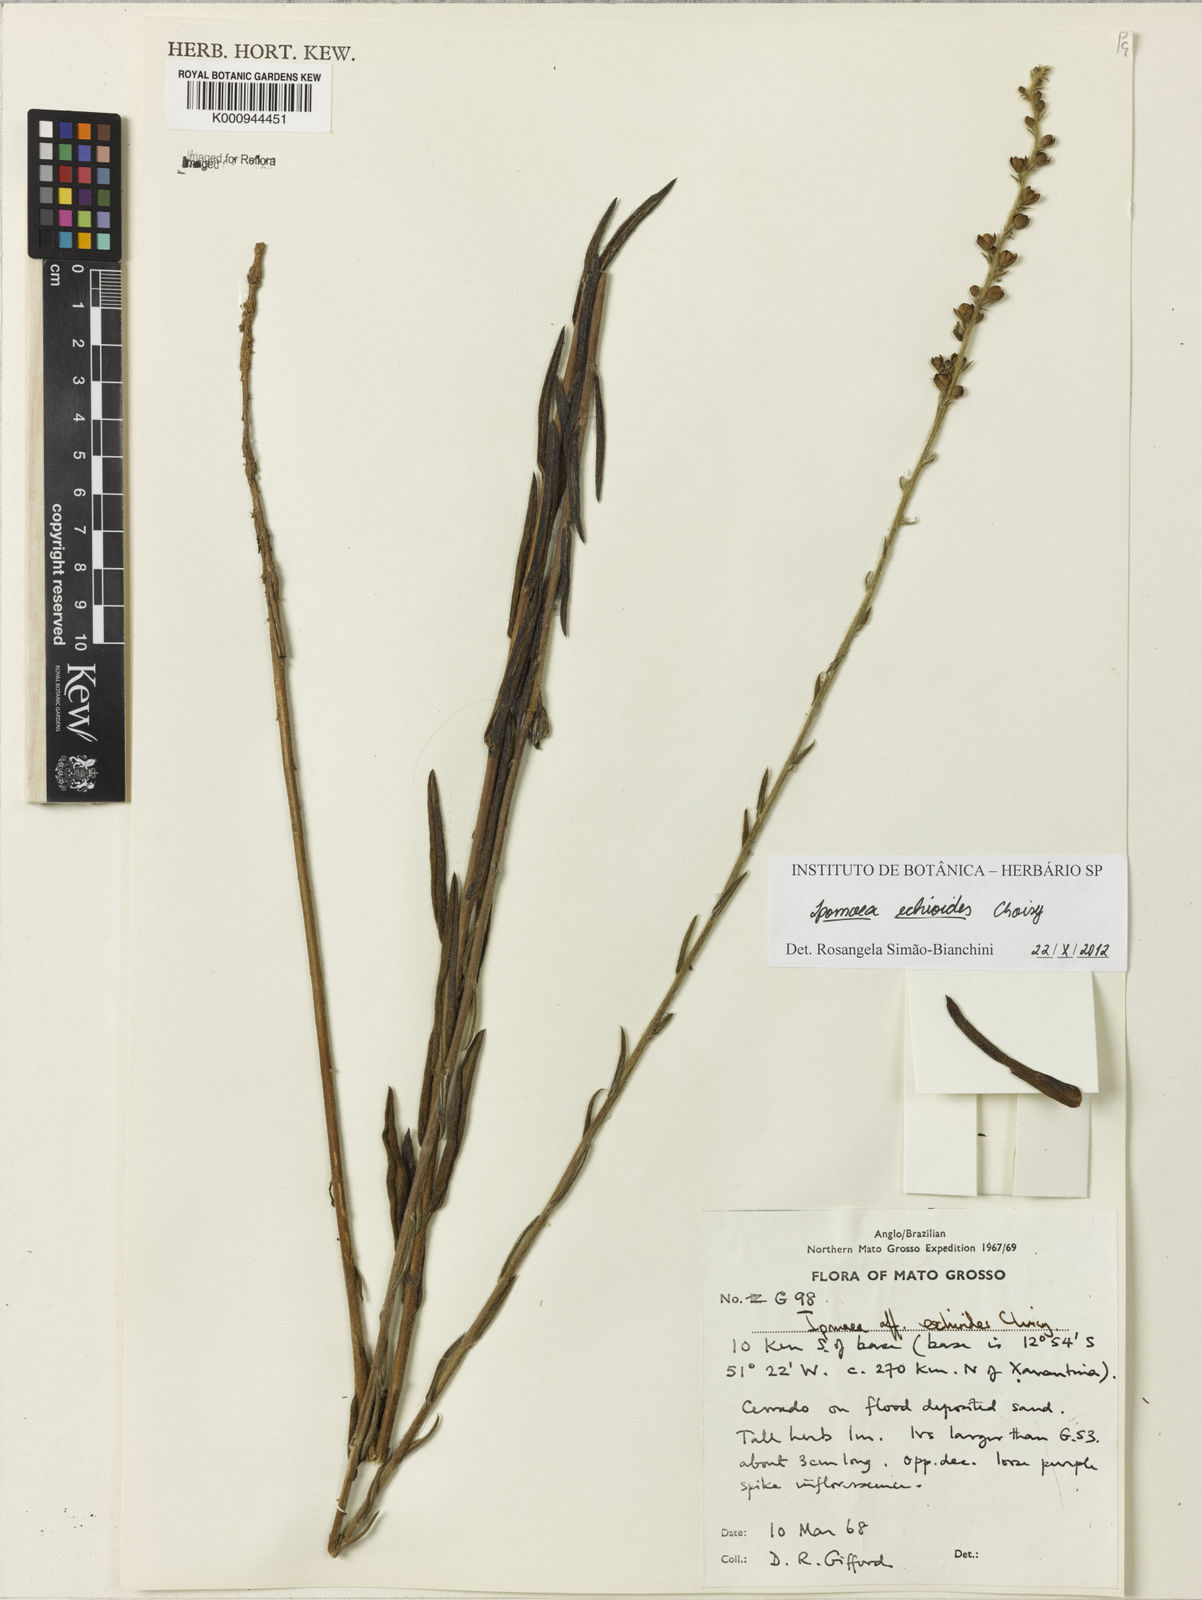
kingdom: Plantae
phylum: Tracheophyta
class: Magnoliopsida
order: Solanales
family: Convolvulaceae
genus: Ipomoea
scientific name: Ipomoea paulistana
